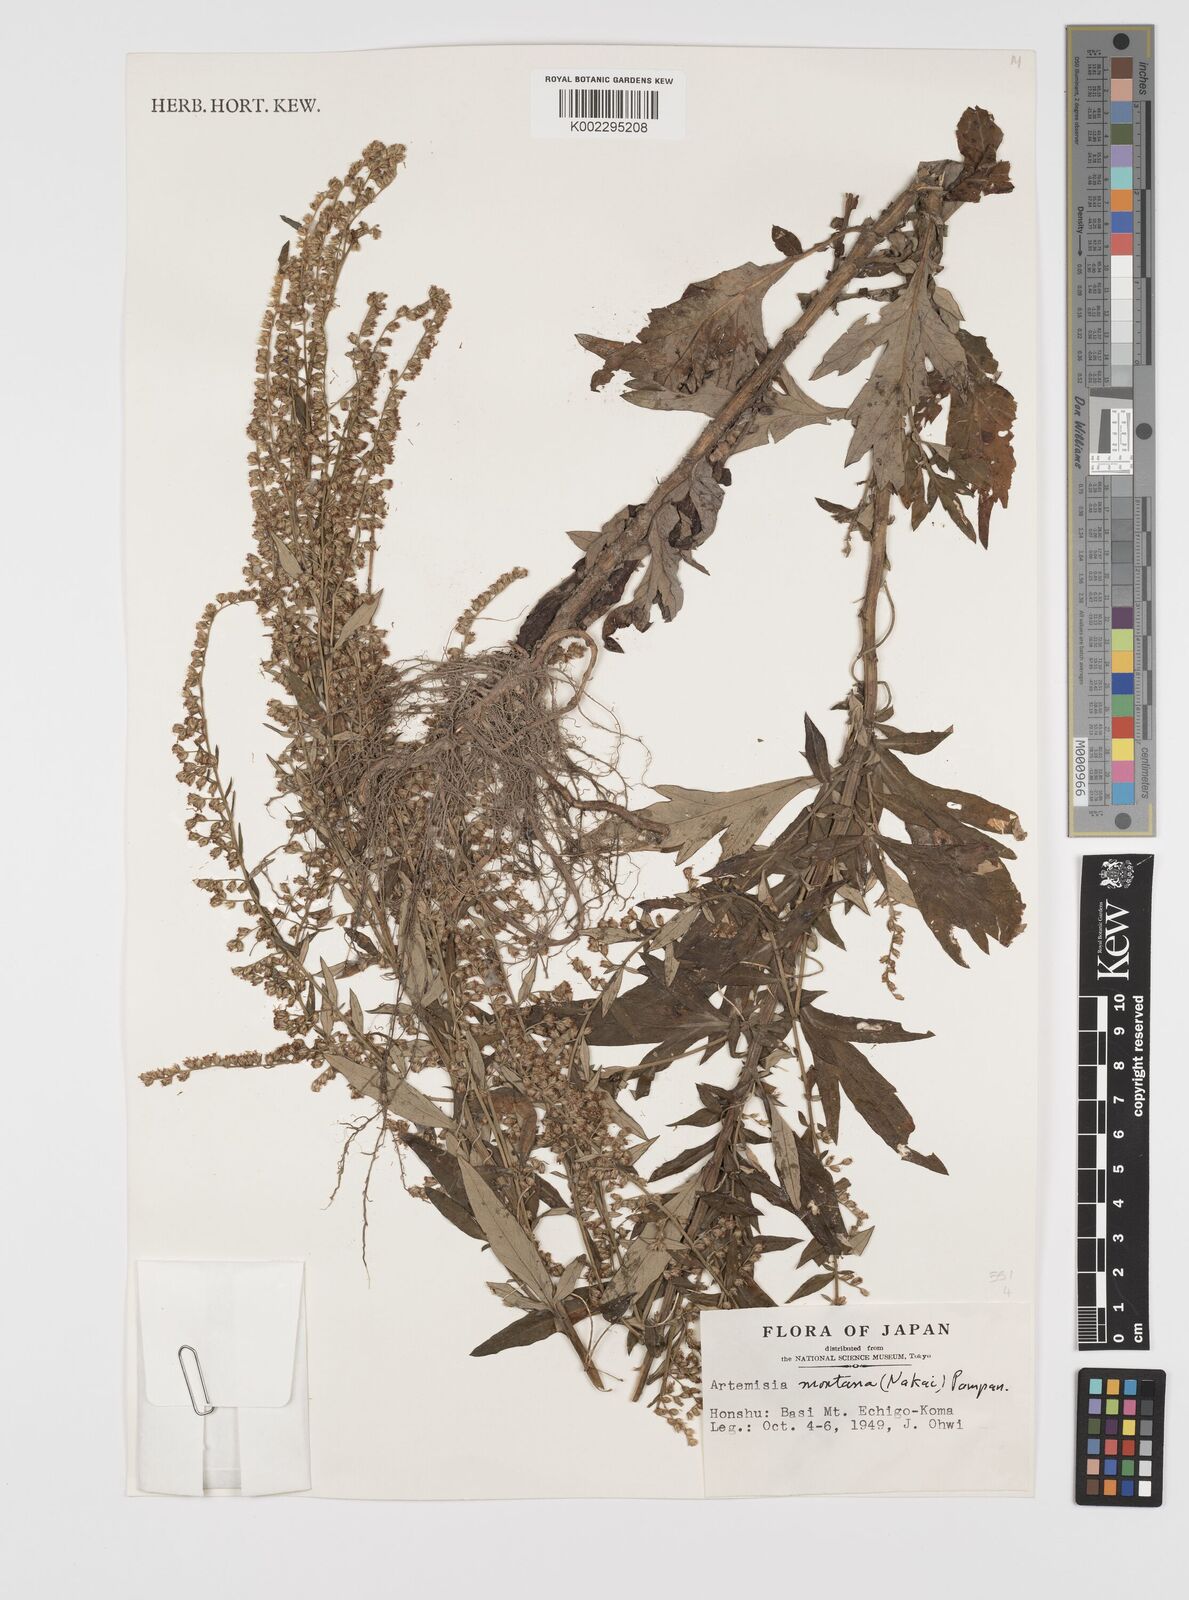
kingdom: Plantae
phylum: Tracheophyta
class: Magnoliopsida
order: Asterales
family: Asteraceae
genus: Artemisia
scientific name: Artemisia montana
